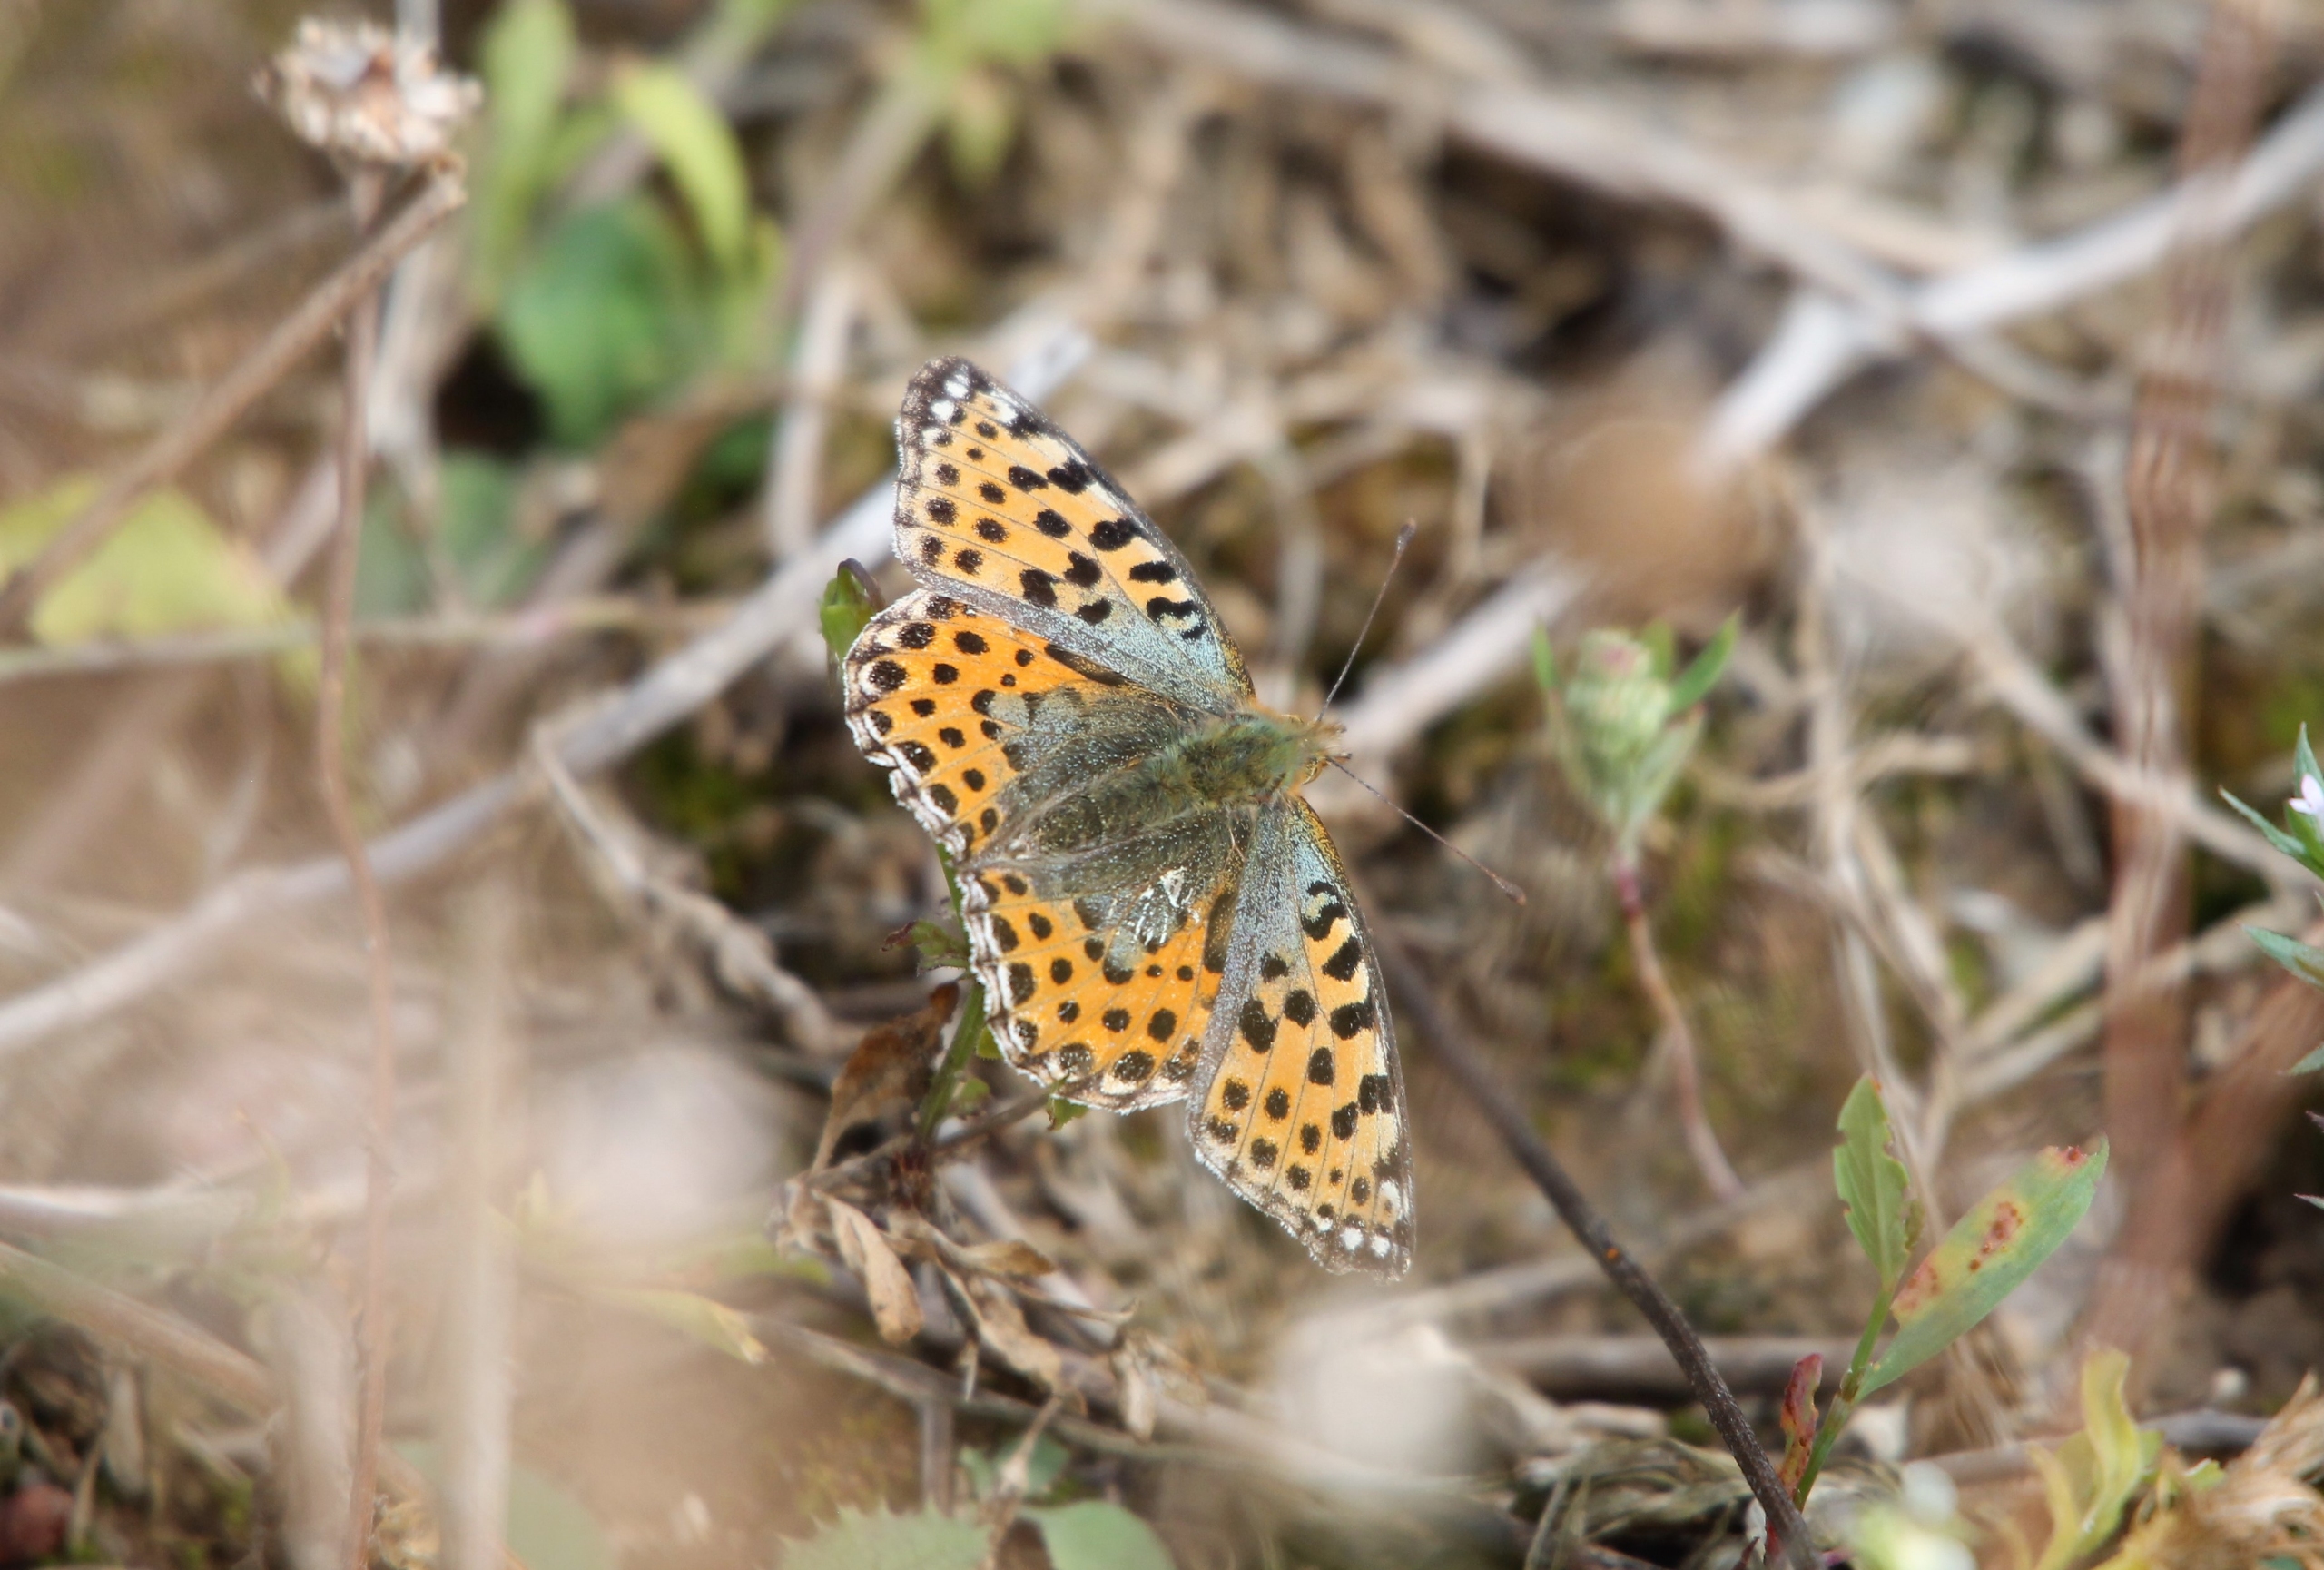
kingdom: Animalia
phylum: Arthropoda
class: Insecta
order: Lepidoptera
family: Nymphalidae
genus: Issoria
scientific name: Issoria lathonia
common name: Storplettet perlemorsommerfugl
